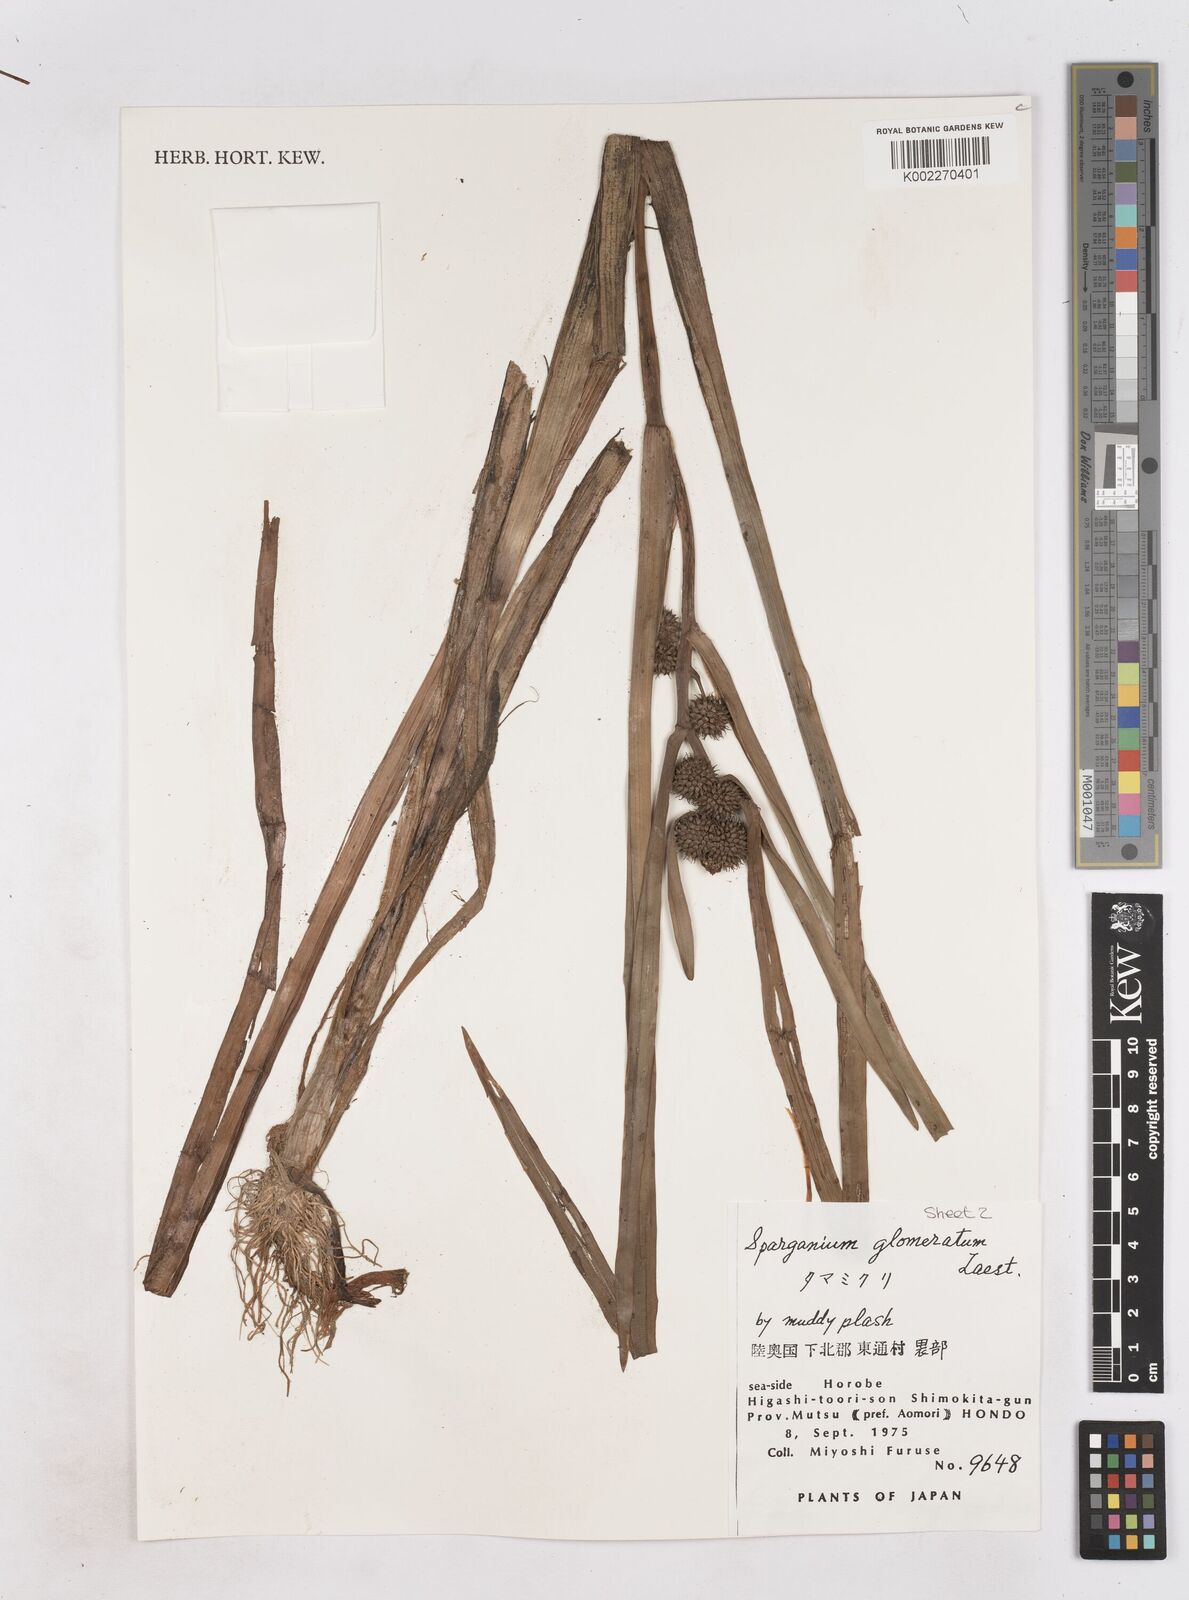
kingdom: Plantae
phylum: Tracheophyta
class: Liliopsida
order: Poales
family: Typhaceae
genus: Sparganium
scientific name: Sparganium glomeratum
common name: Clustered burreed
